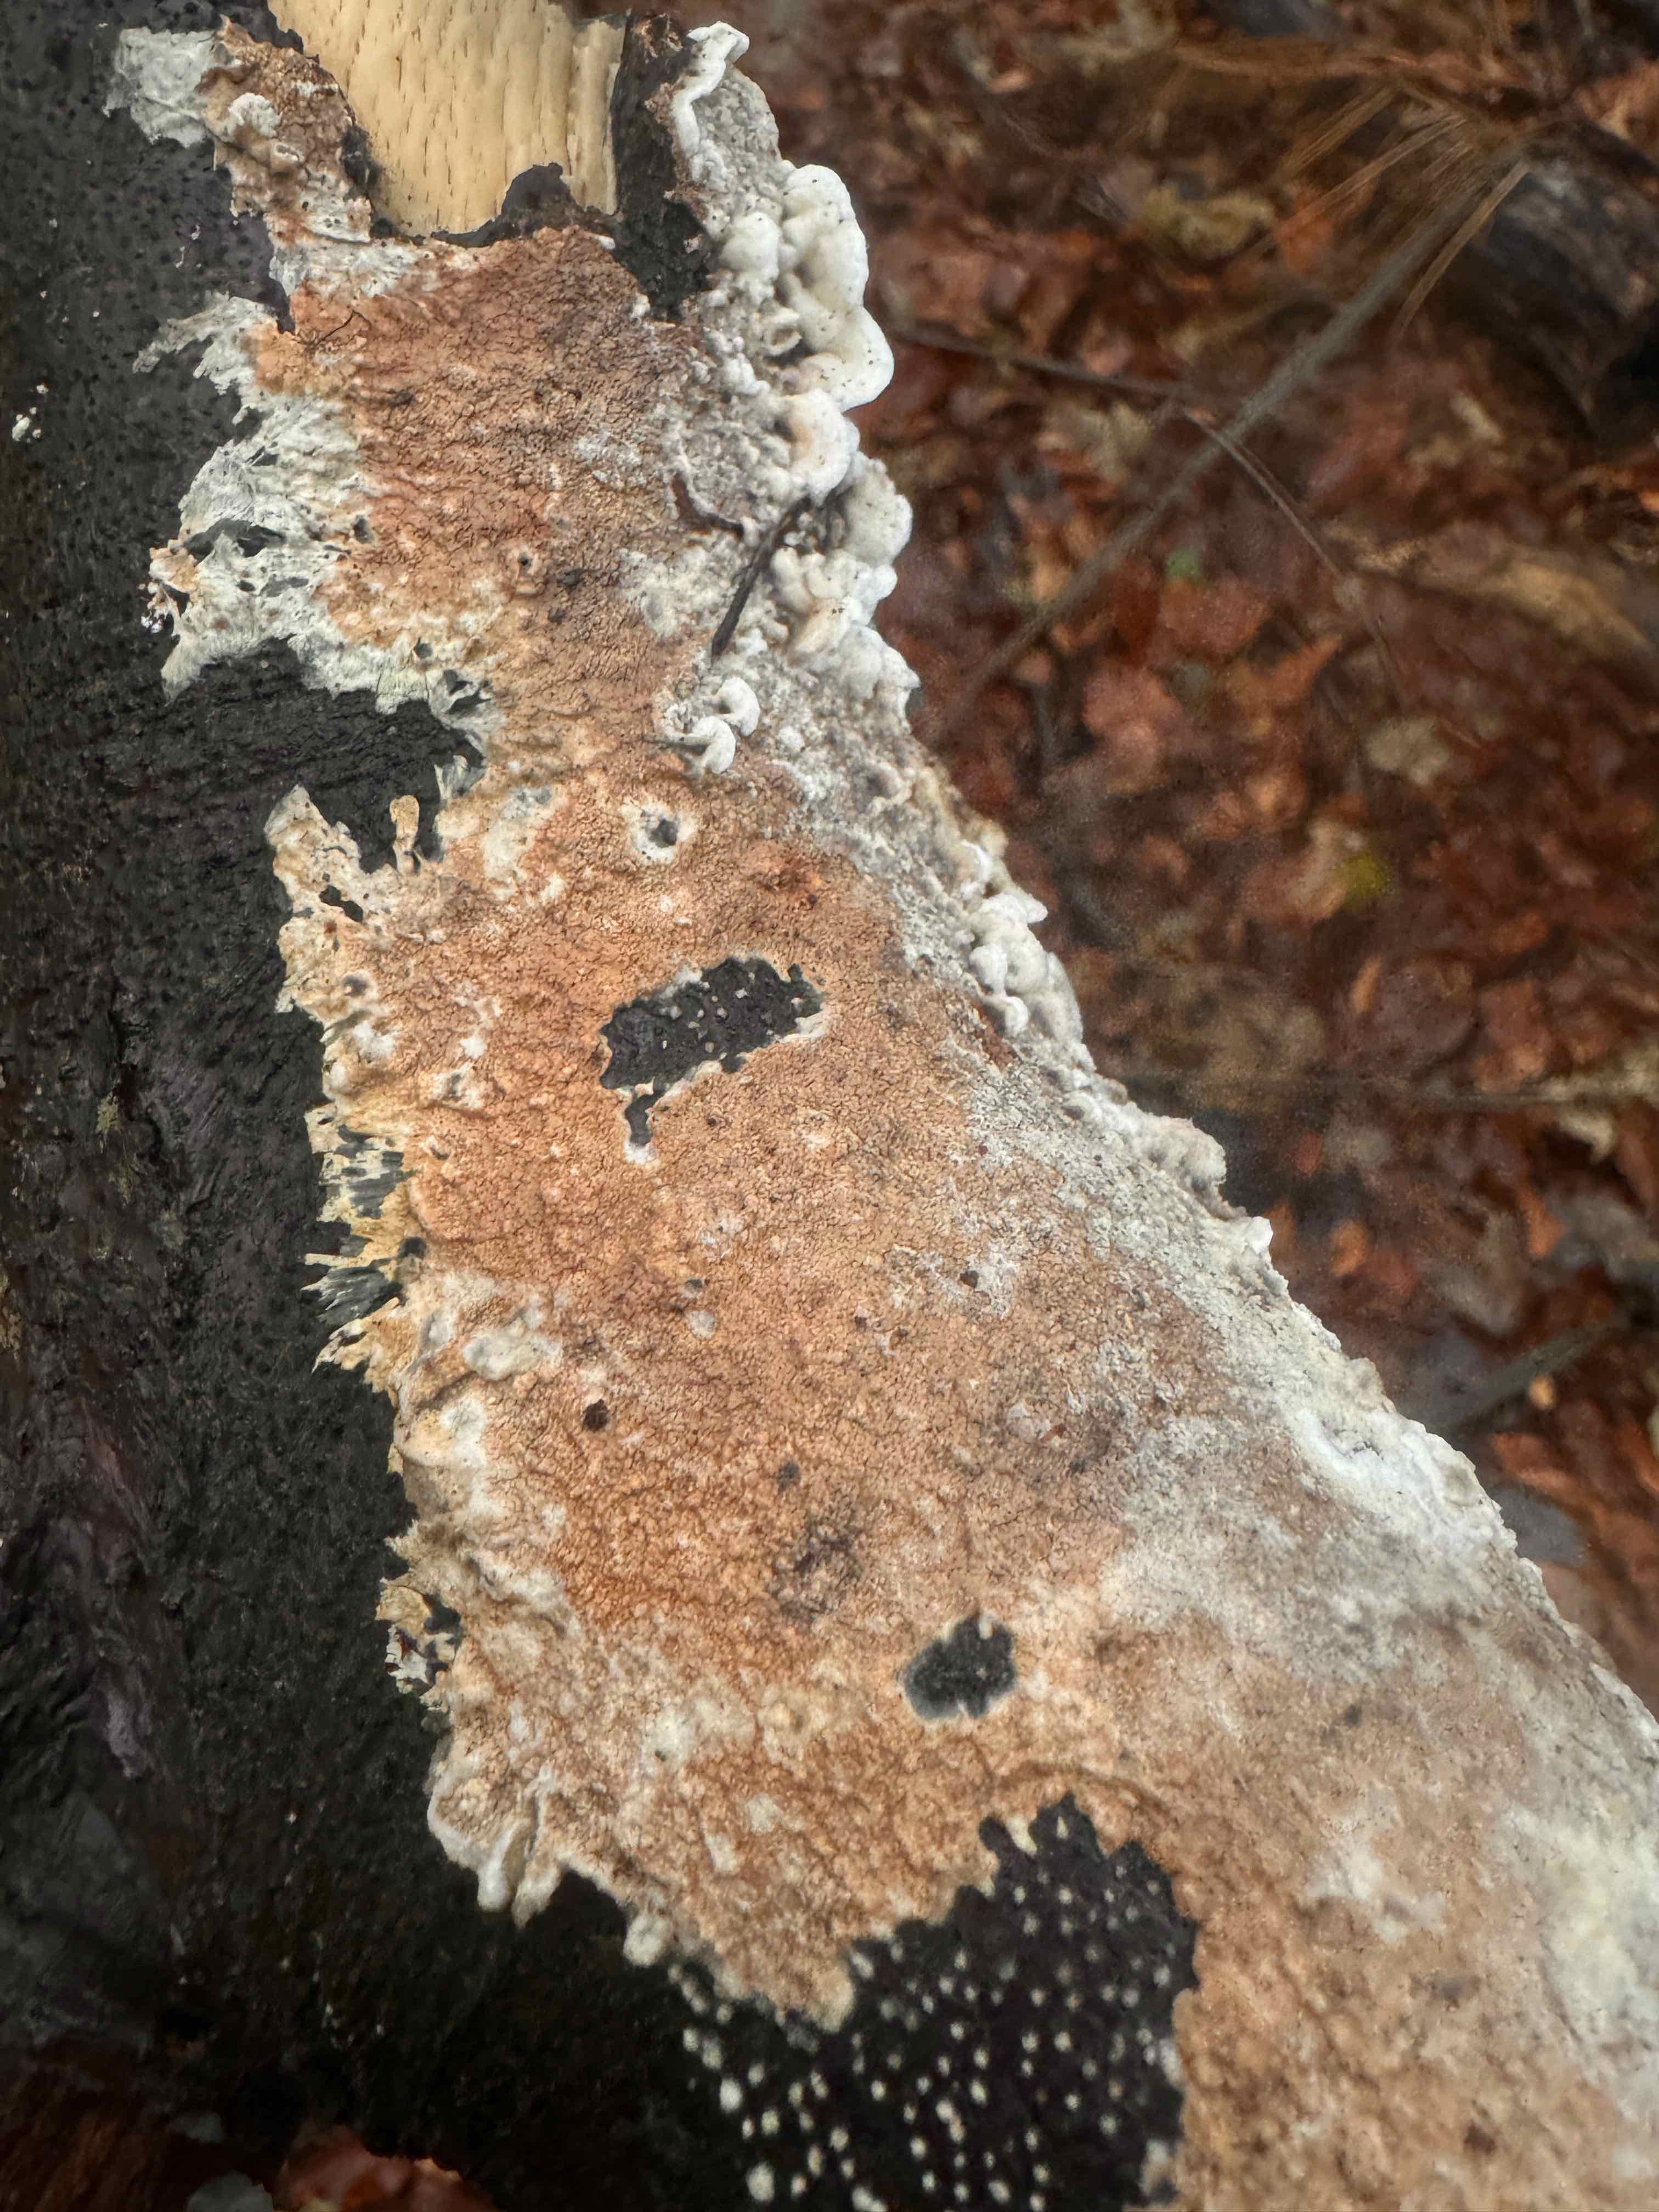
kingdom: Fungi
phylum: Basidiomycota
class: Agaricomycetes
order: Agaricales
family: Physalacriaceae
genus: Cylindrobasidium
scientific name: Cylindrobasidium evolvens
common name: sprækkehinde
